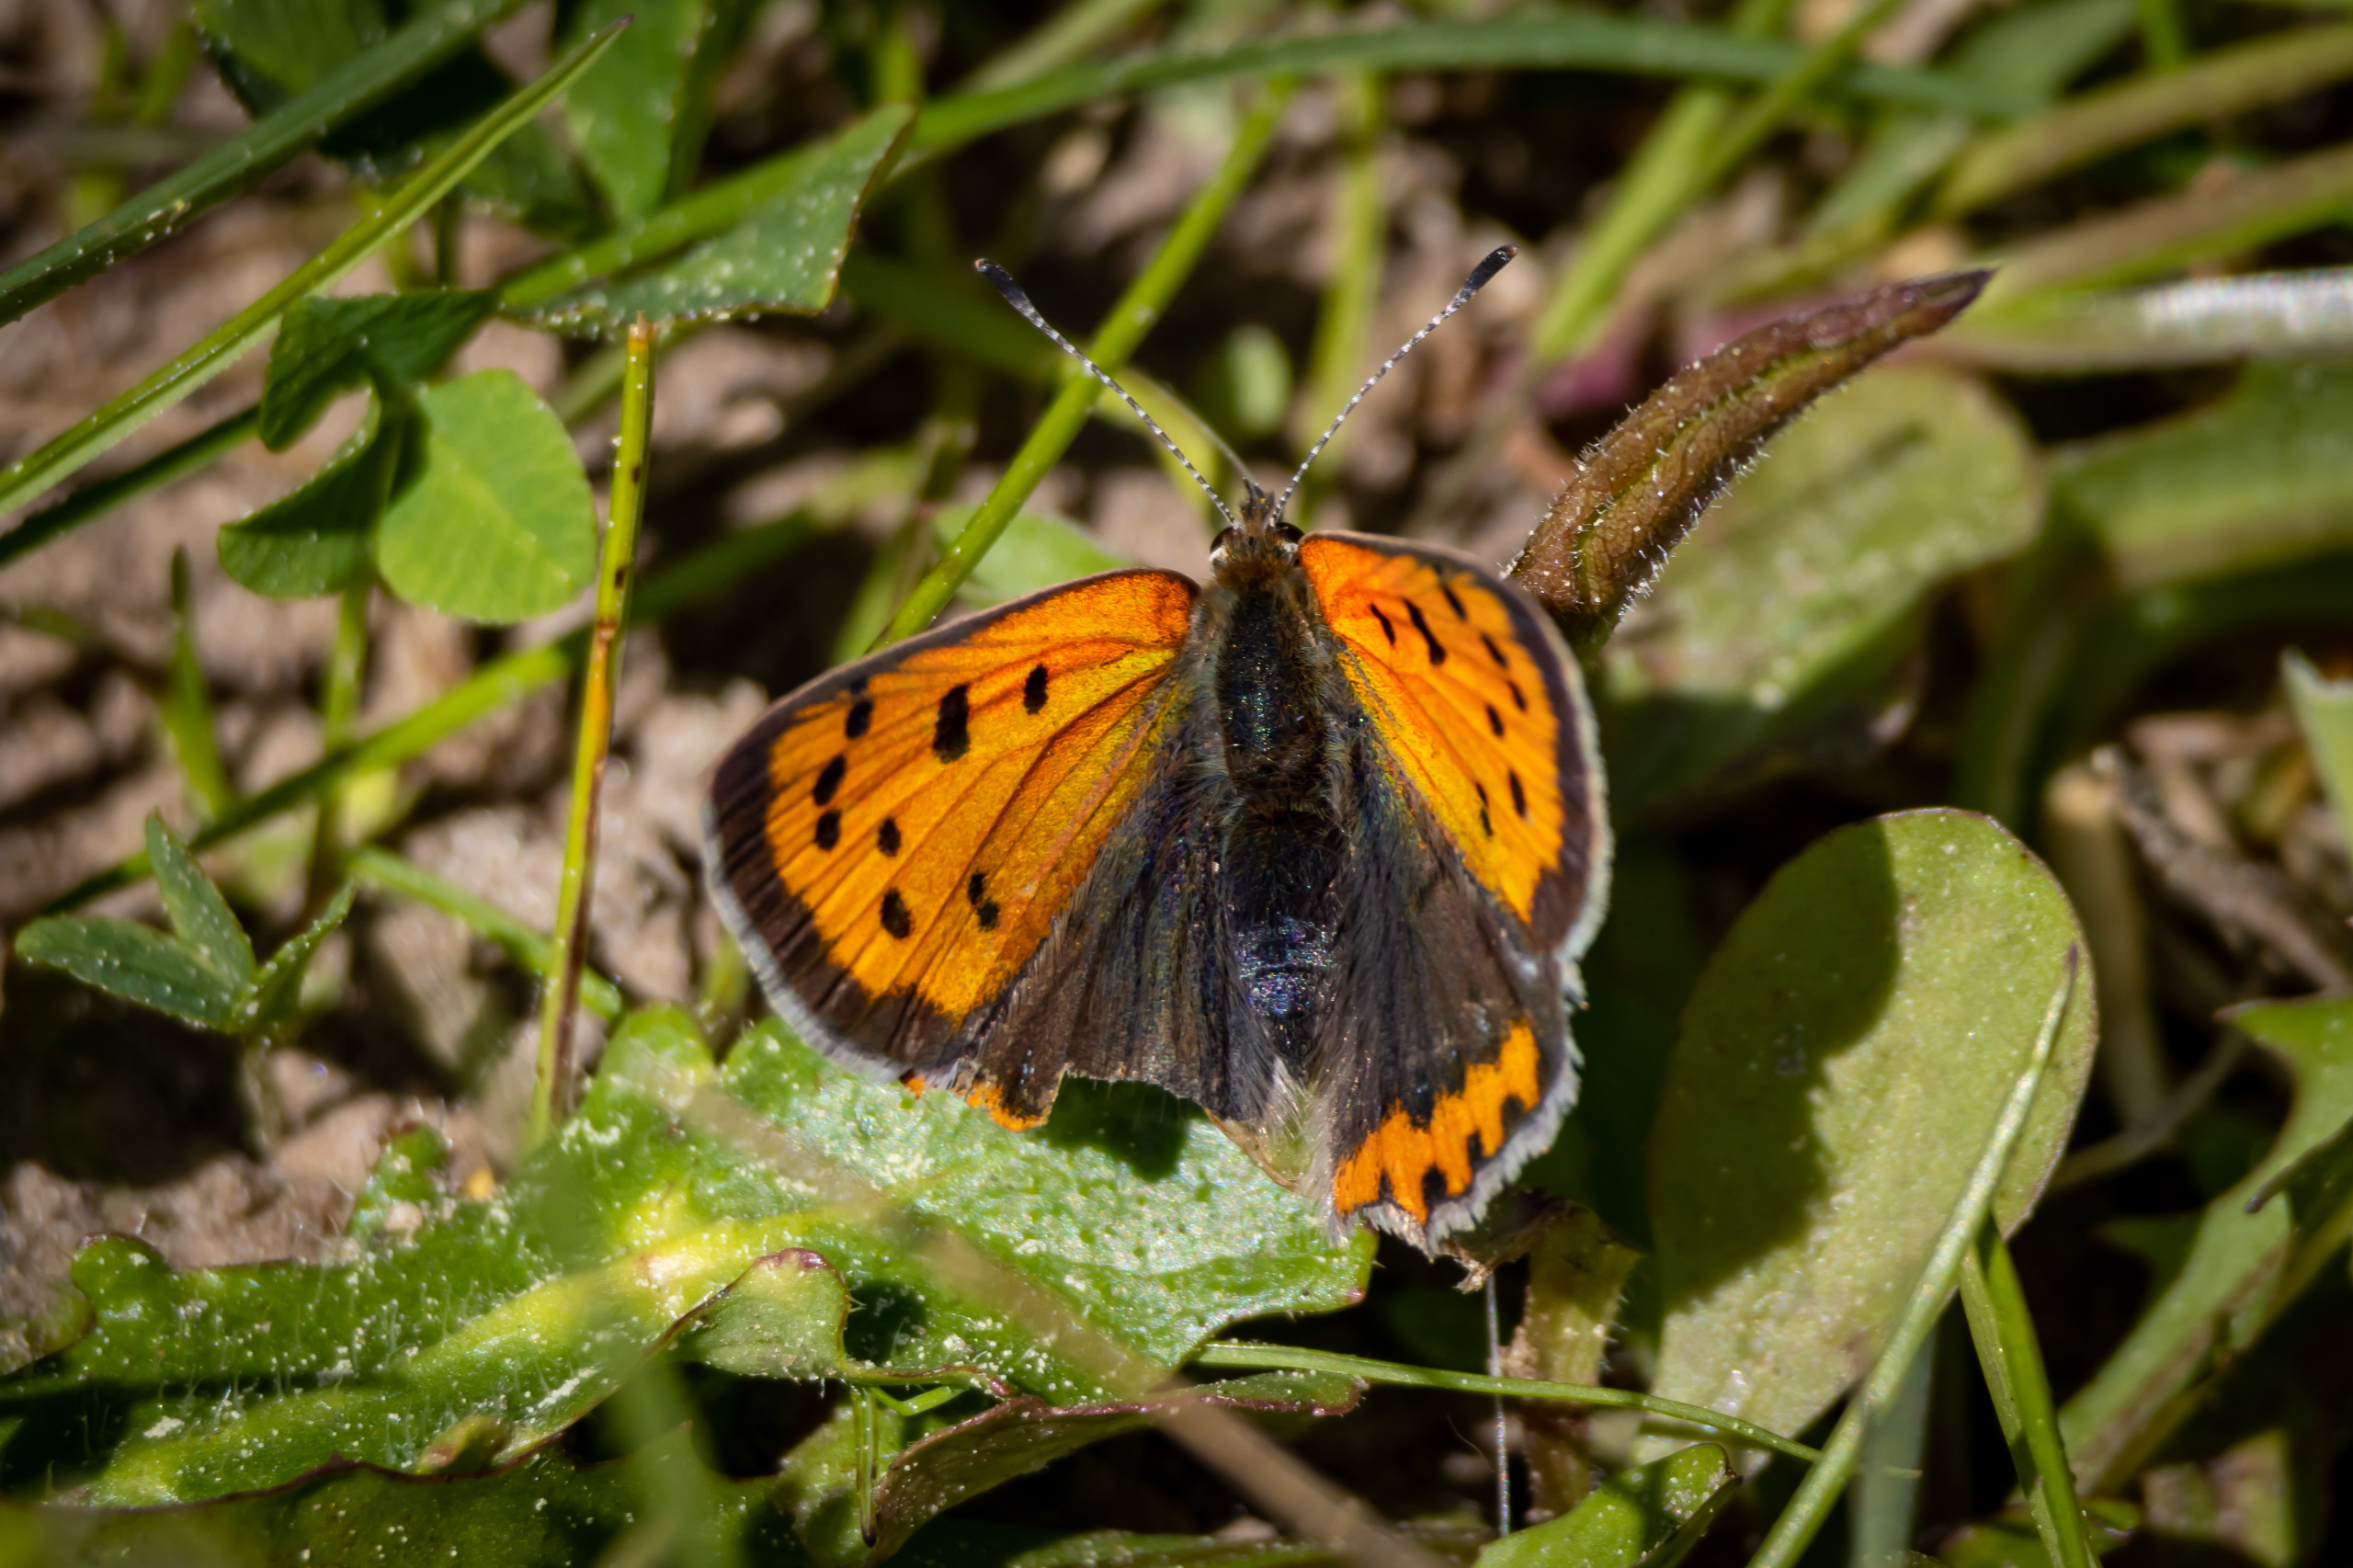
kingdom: Animalia
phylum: Arthropoda
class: Insecta
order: Lepidoptera
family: Lycaenidae
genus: Lycaena
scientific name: Lycaena phlaeas
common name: Lille ildfugl
